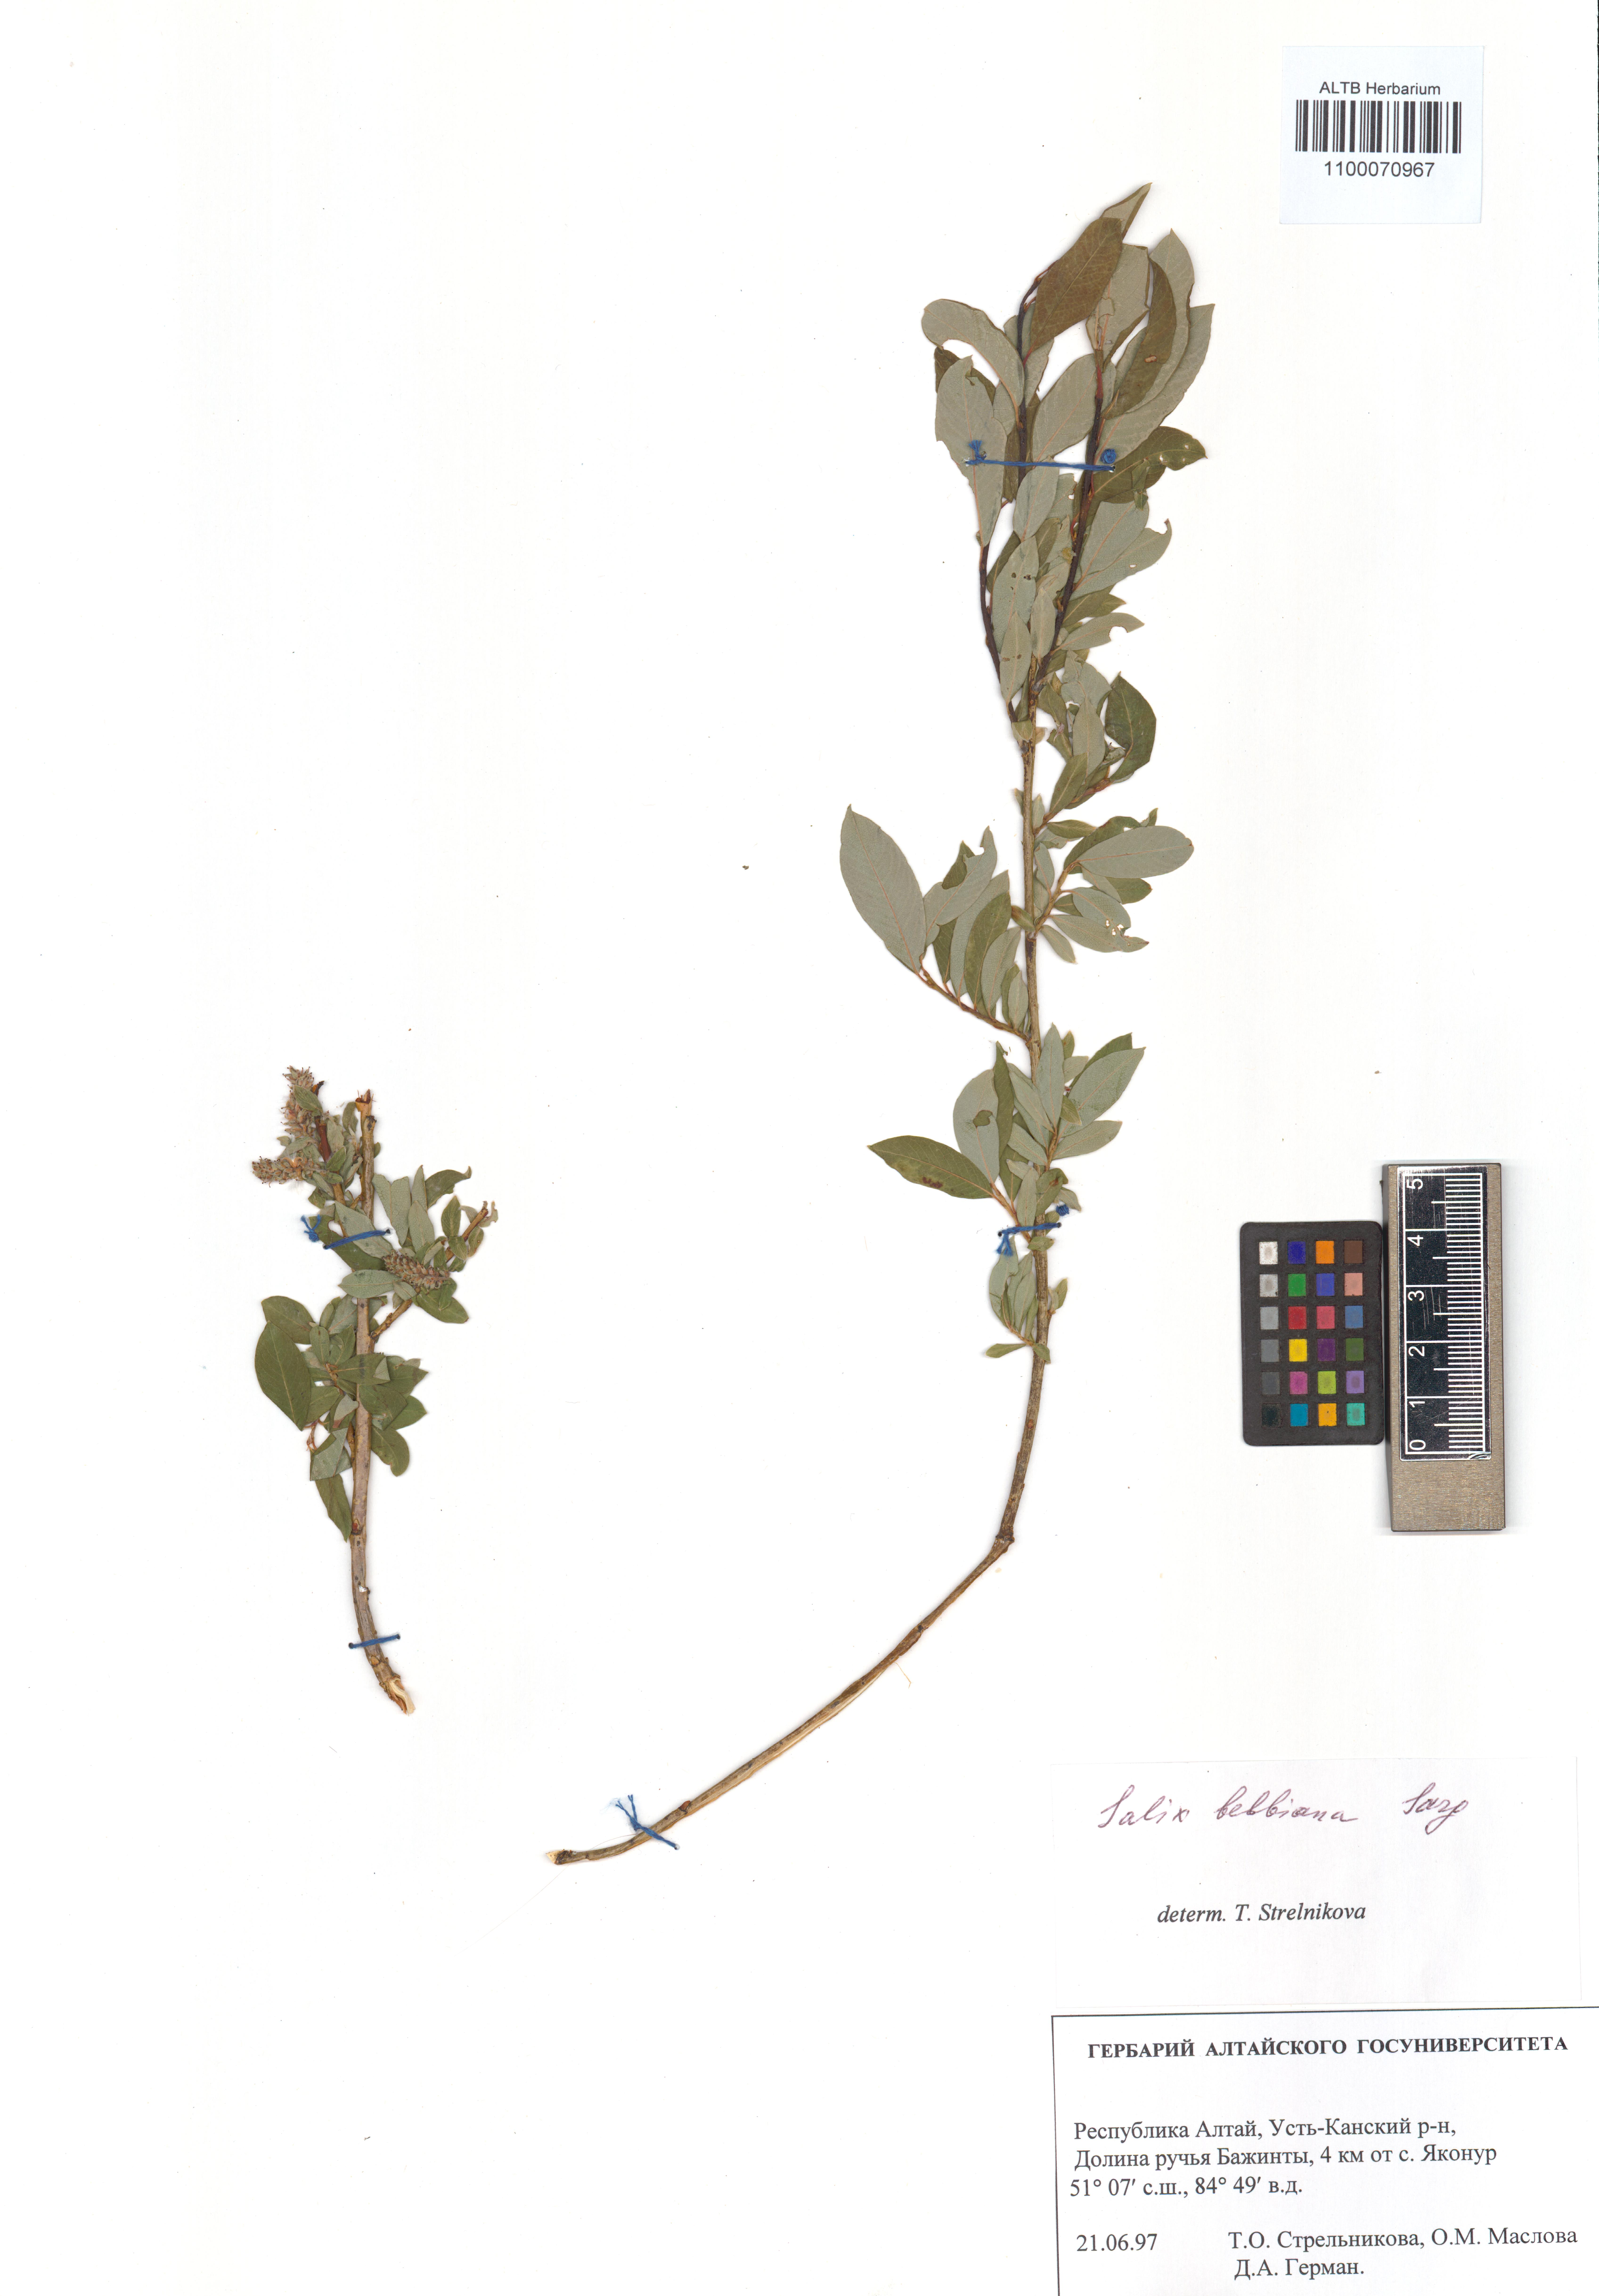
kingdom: Plantae
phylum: Tracheophyta
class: Magnoliopsida
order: Malpighiales
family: Salicaceae
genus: Salix
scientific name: Salix bebbiana
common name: Bebb's willow
